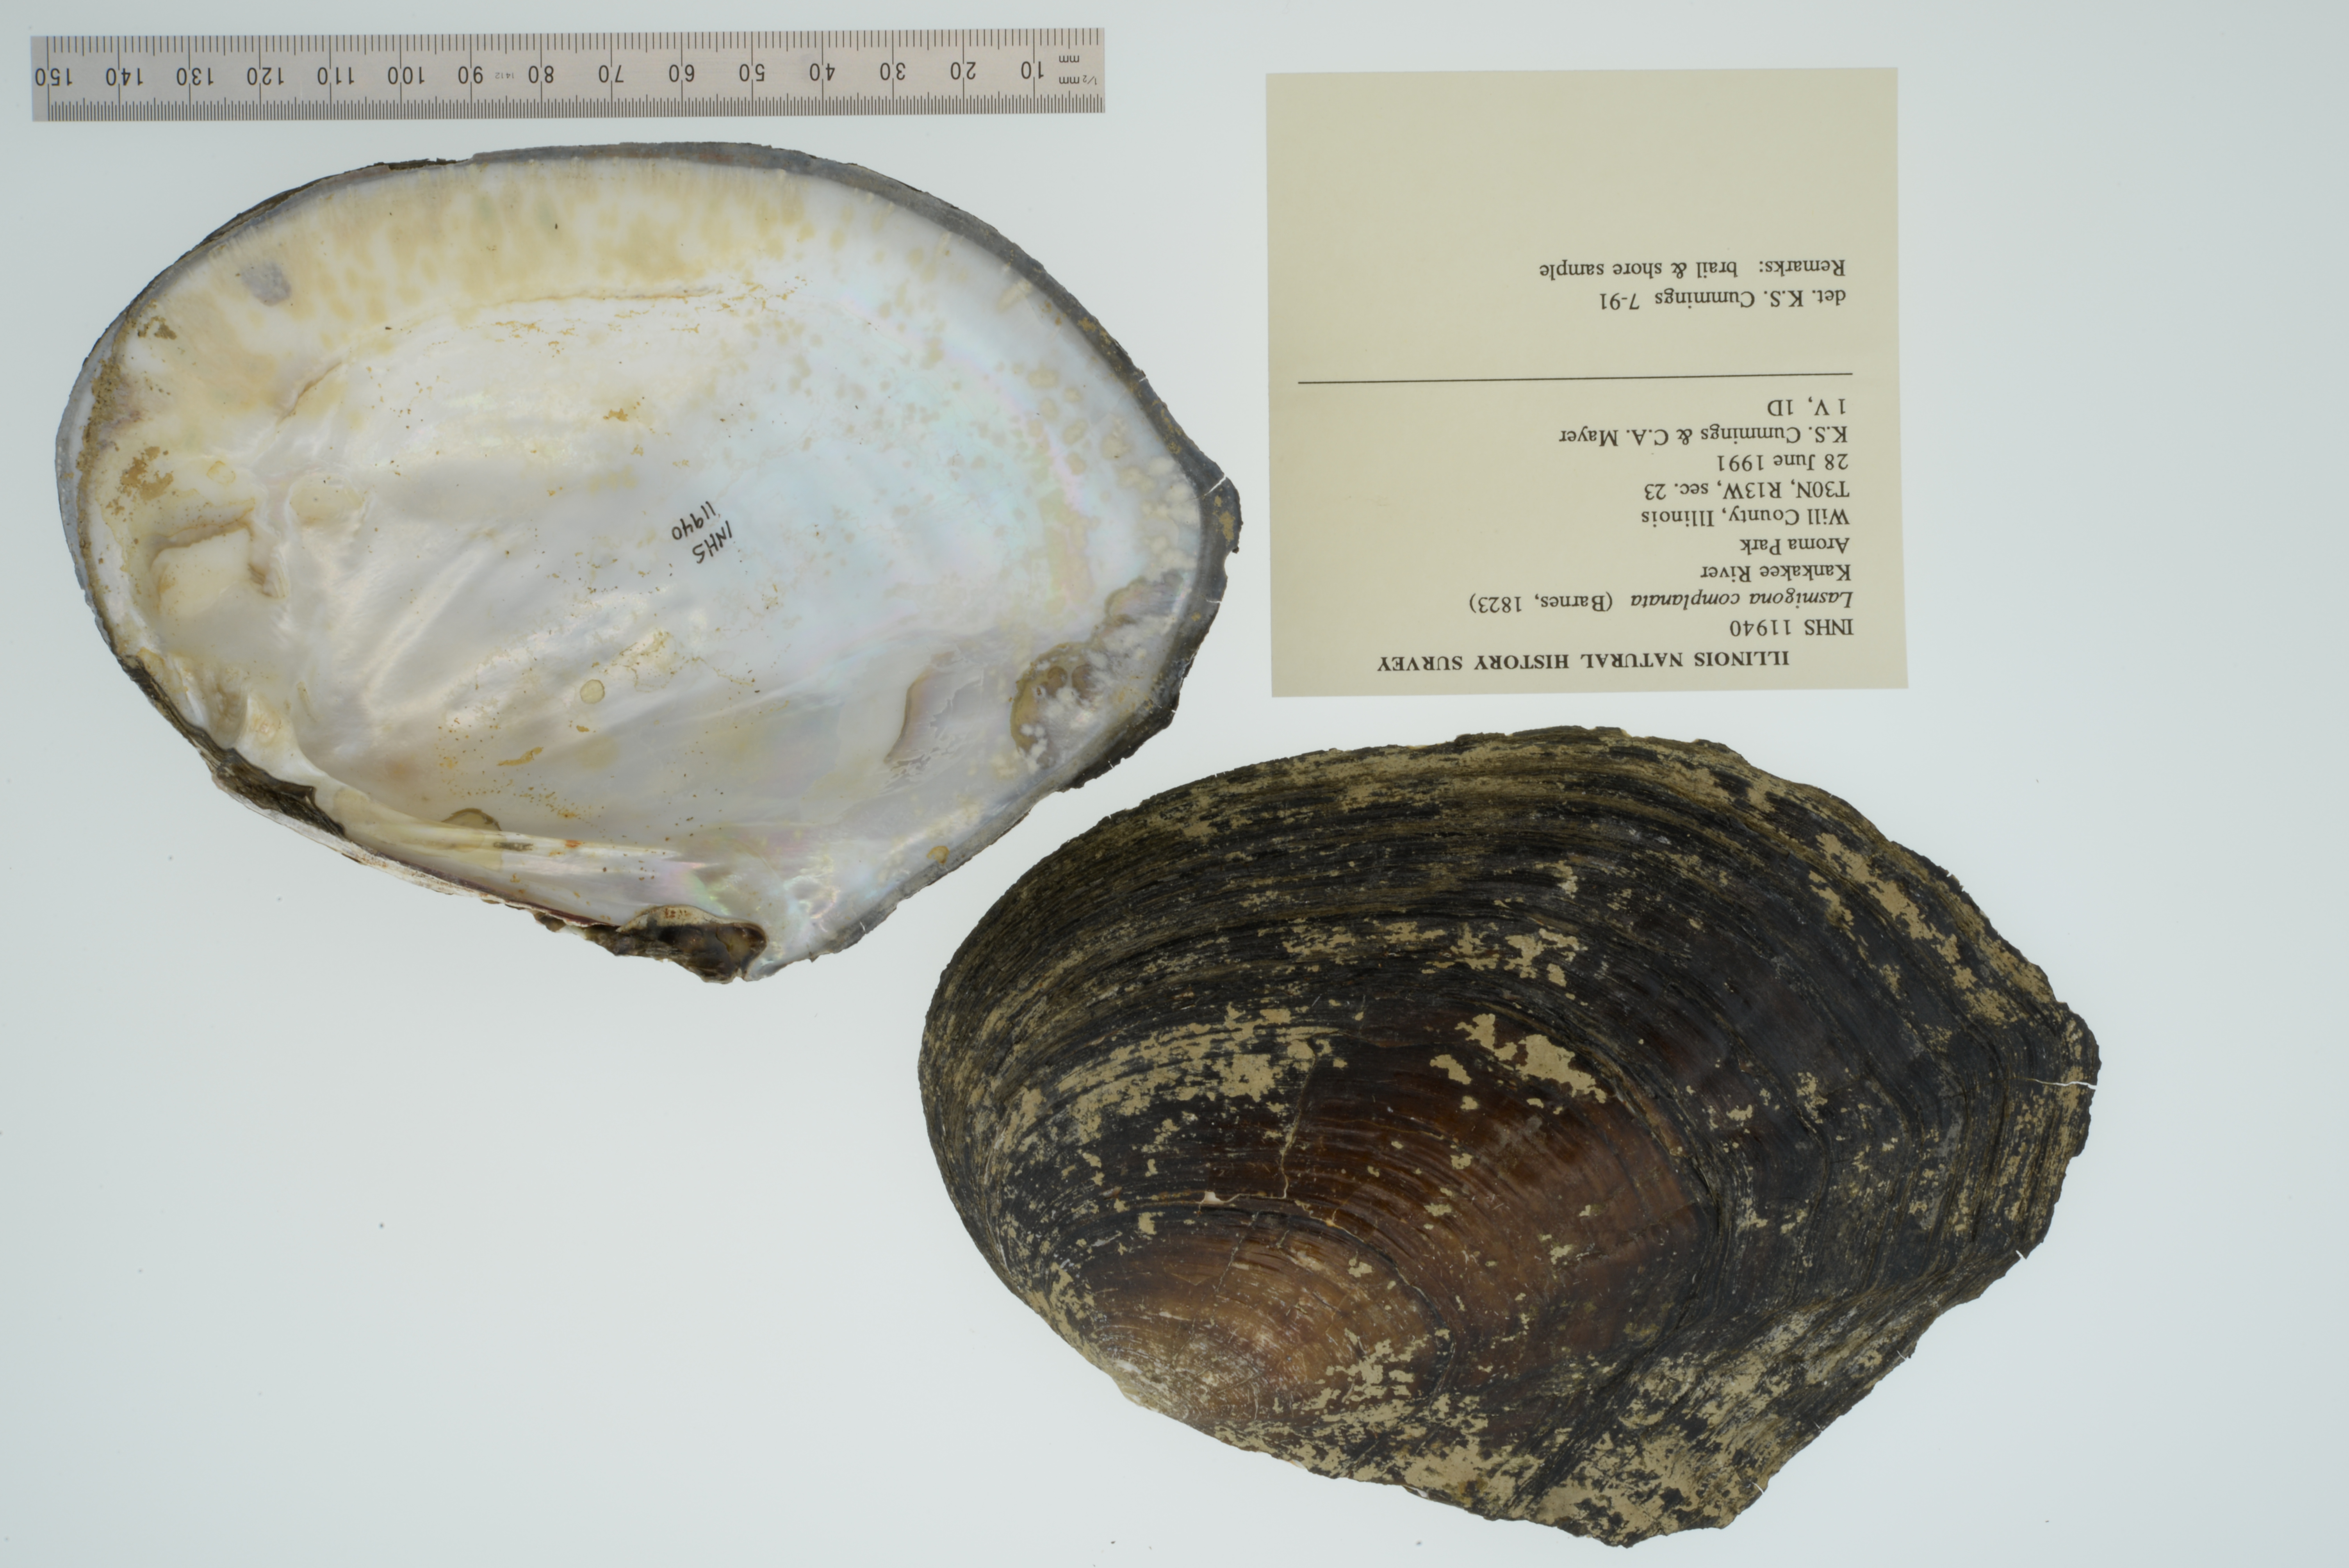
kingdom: Animalia
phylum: Mollusca
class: Bivalvia
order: Unionida
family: Unionidae
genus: Lasmigona
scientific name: Lasmigona complanata
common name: White heelsplitter
